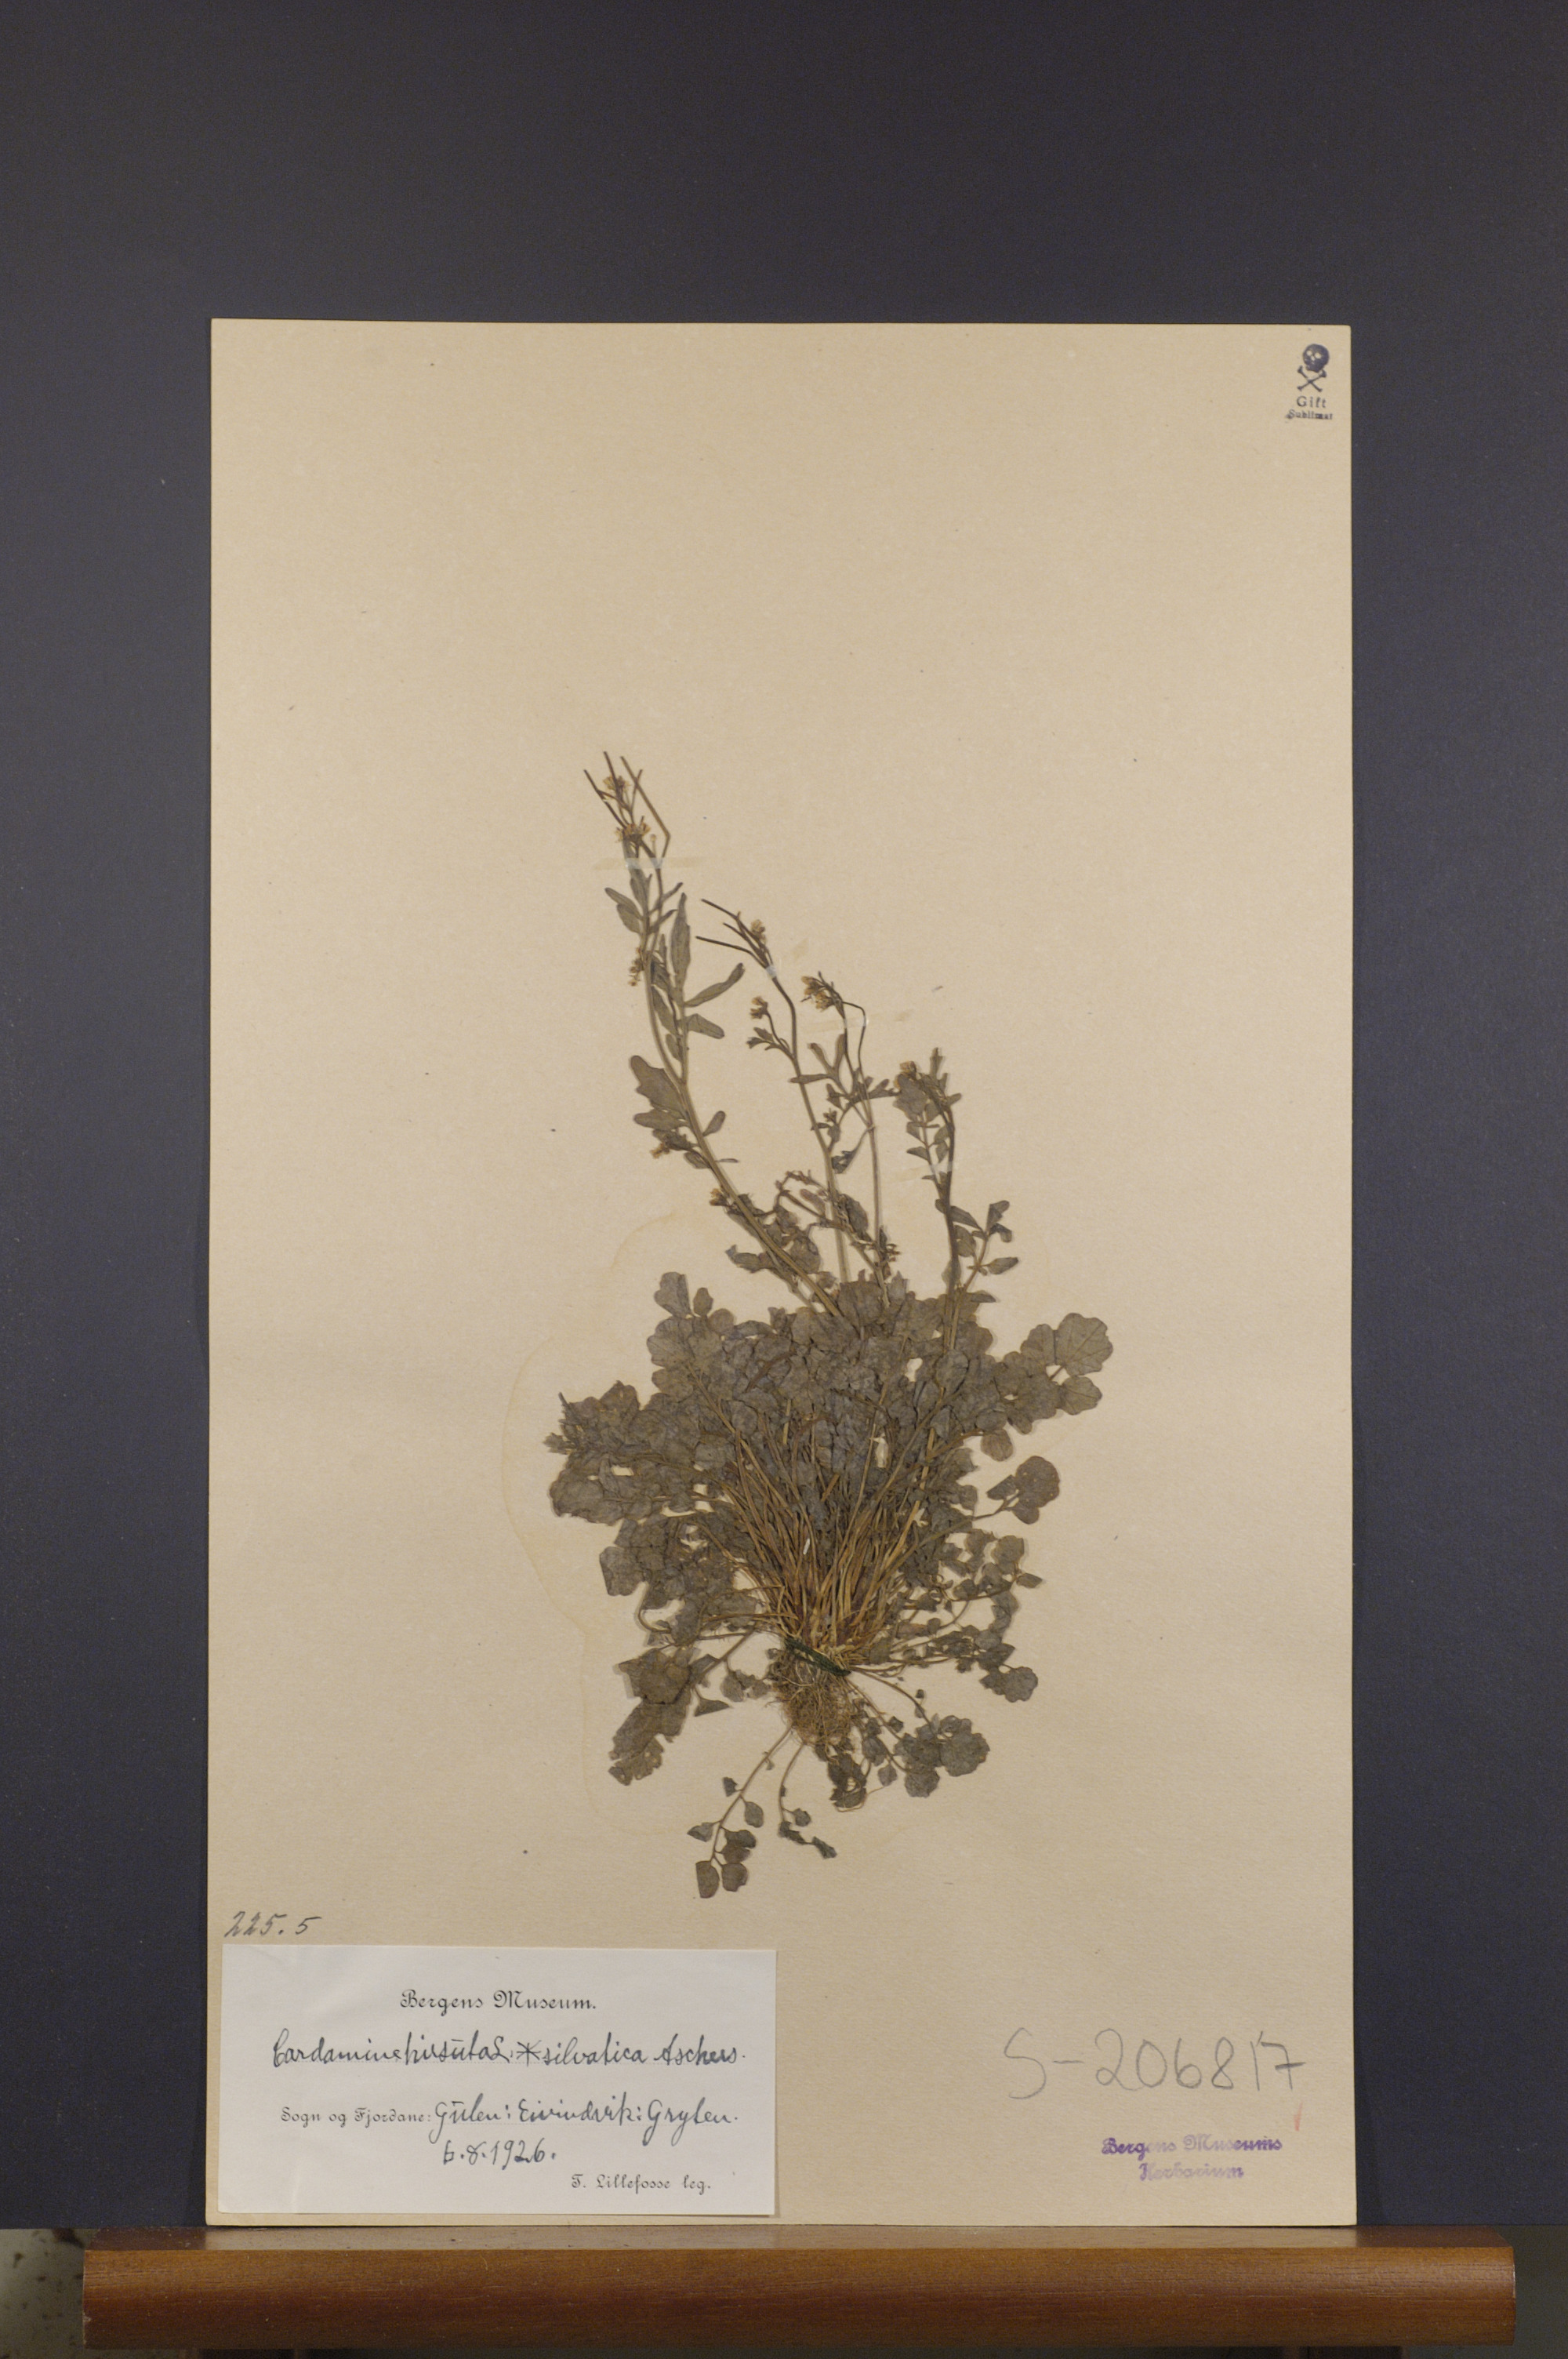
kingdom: Plantae
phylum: Tracheophyta
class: Magnoliopsida
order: Brassicales
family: Brassicaceae
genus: Cardamine
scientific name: Cardamine flexuosa
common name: Woodland bittercress
